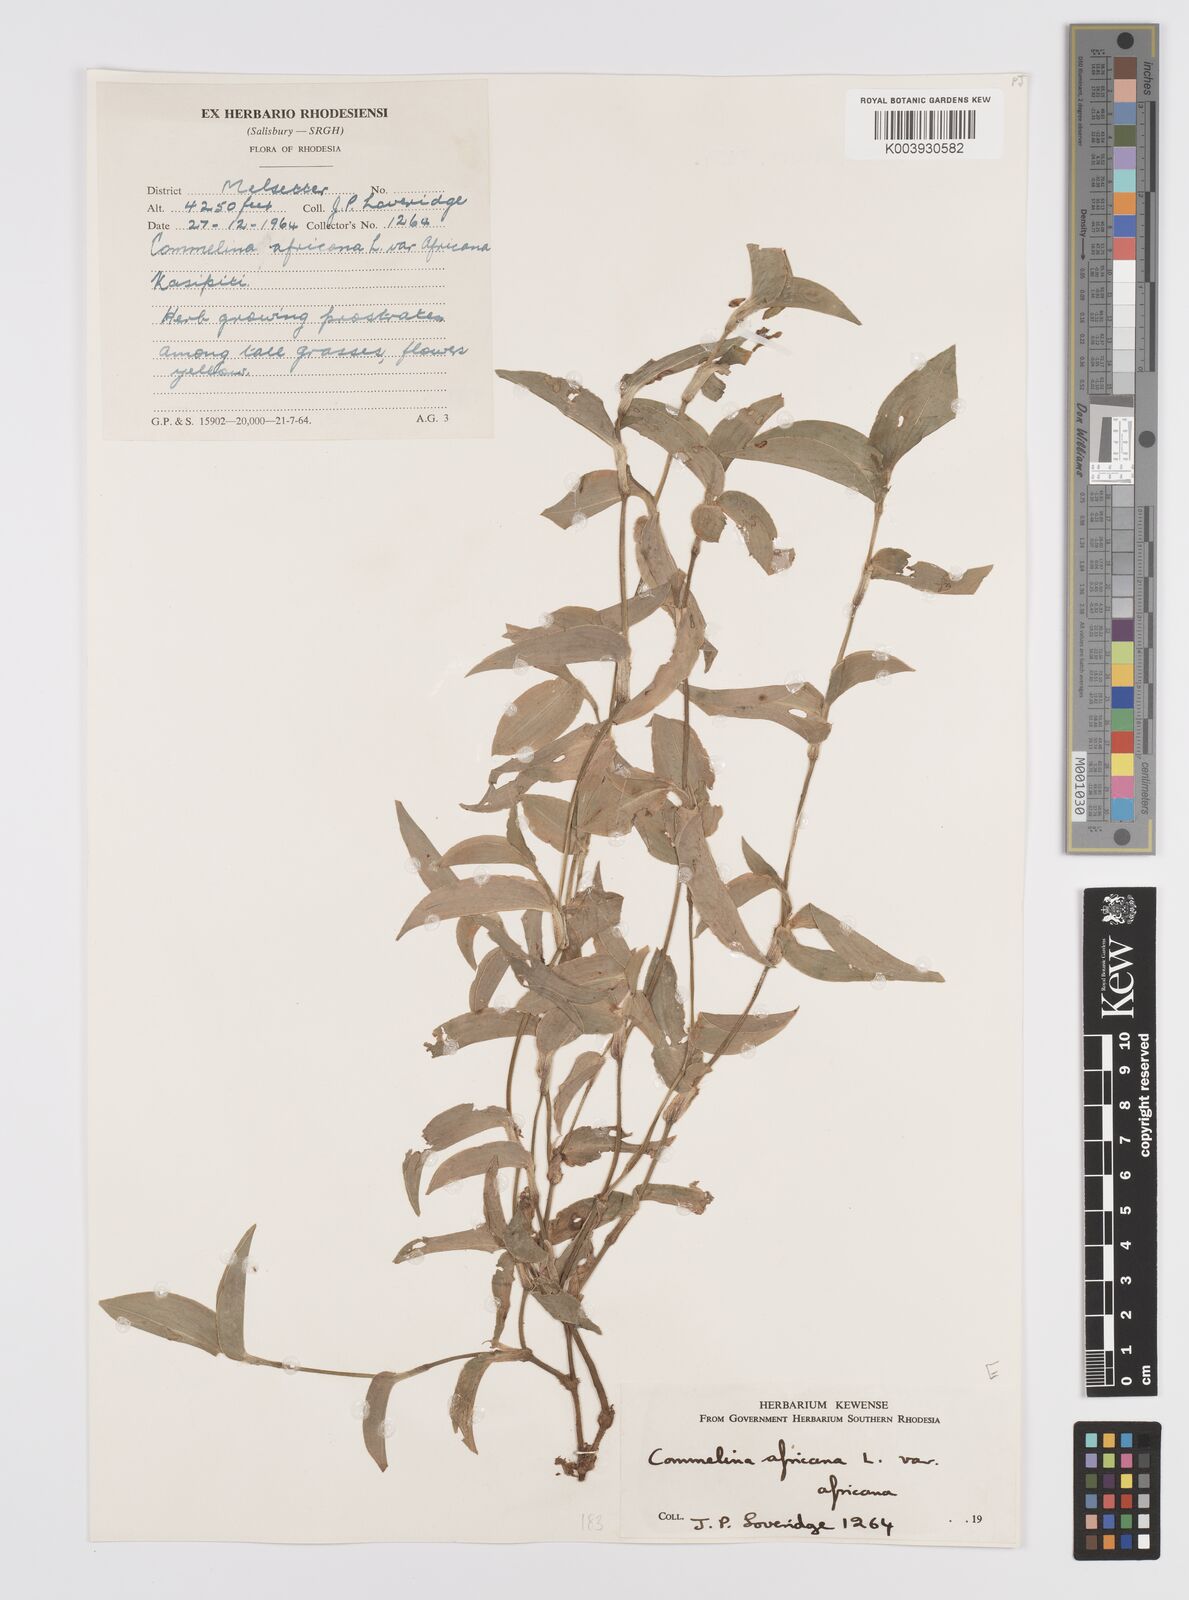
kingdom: Plantae
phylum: Tracheophyta
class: Liliopsida
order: Commelinales
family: Commelinaceae
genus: Commelina
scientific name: Commelina africana
